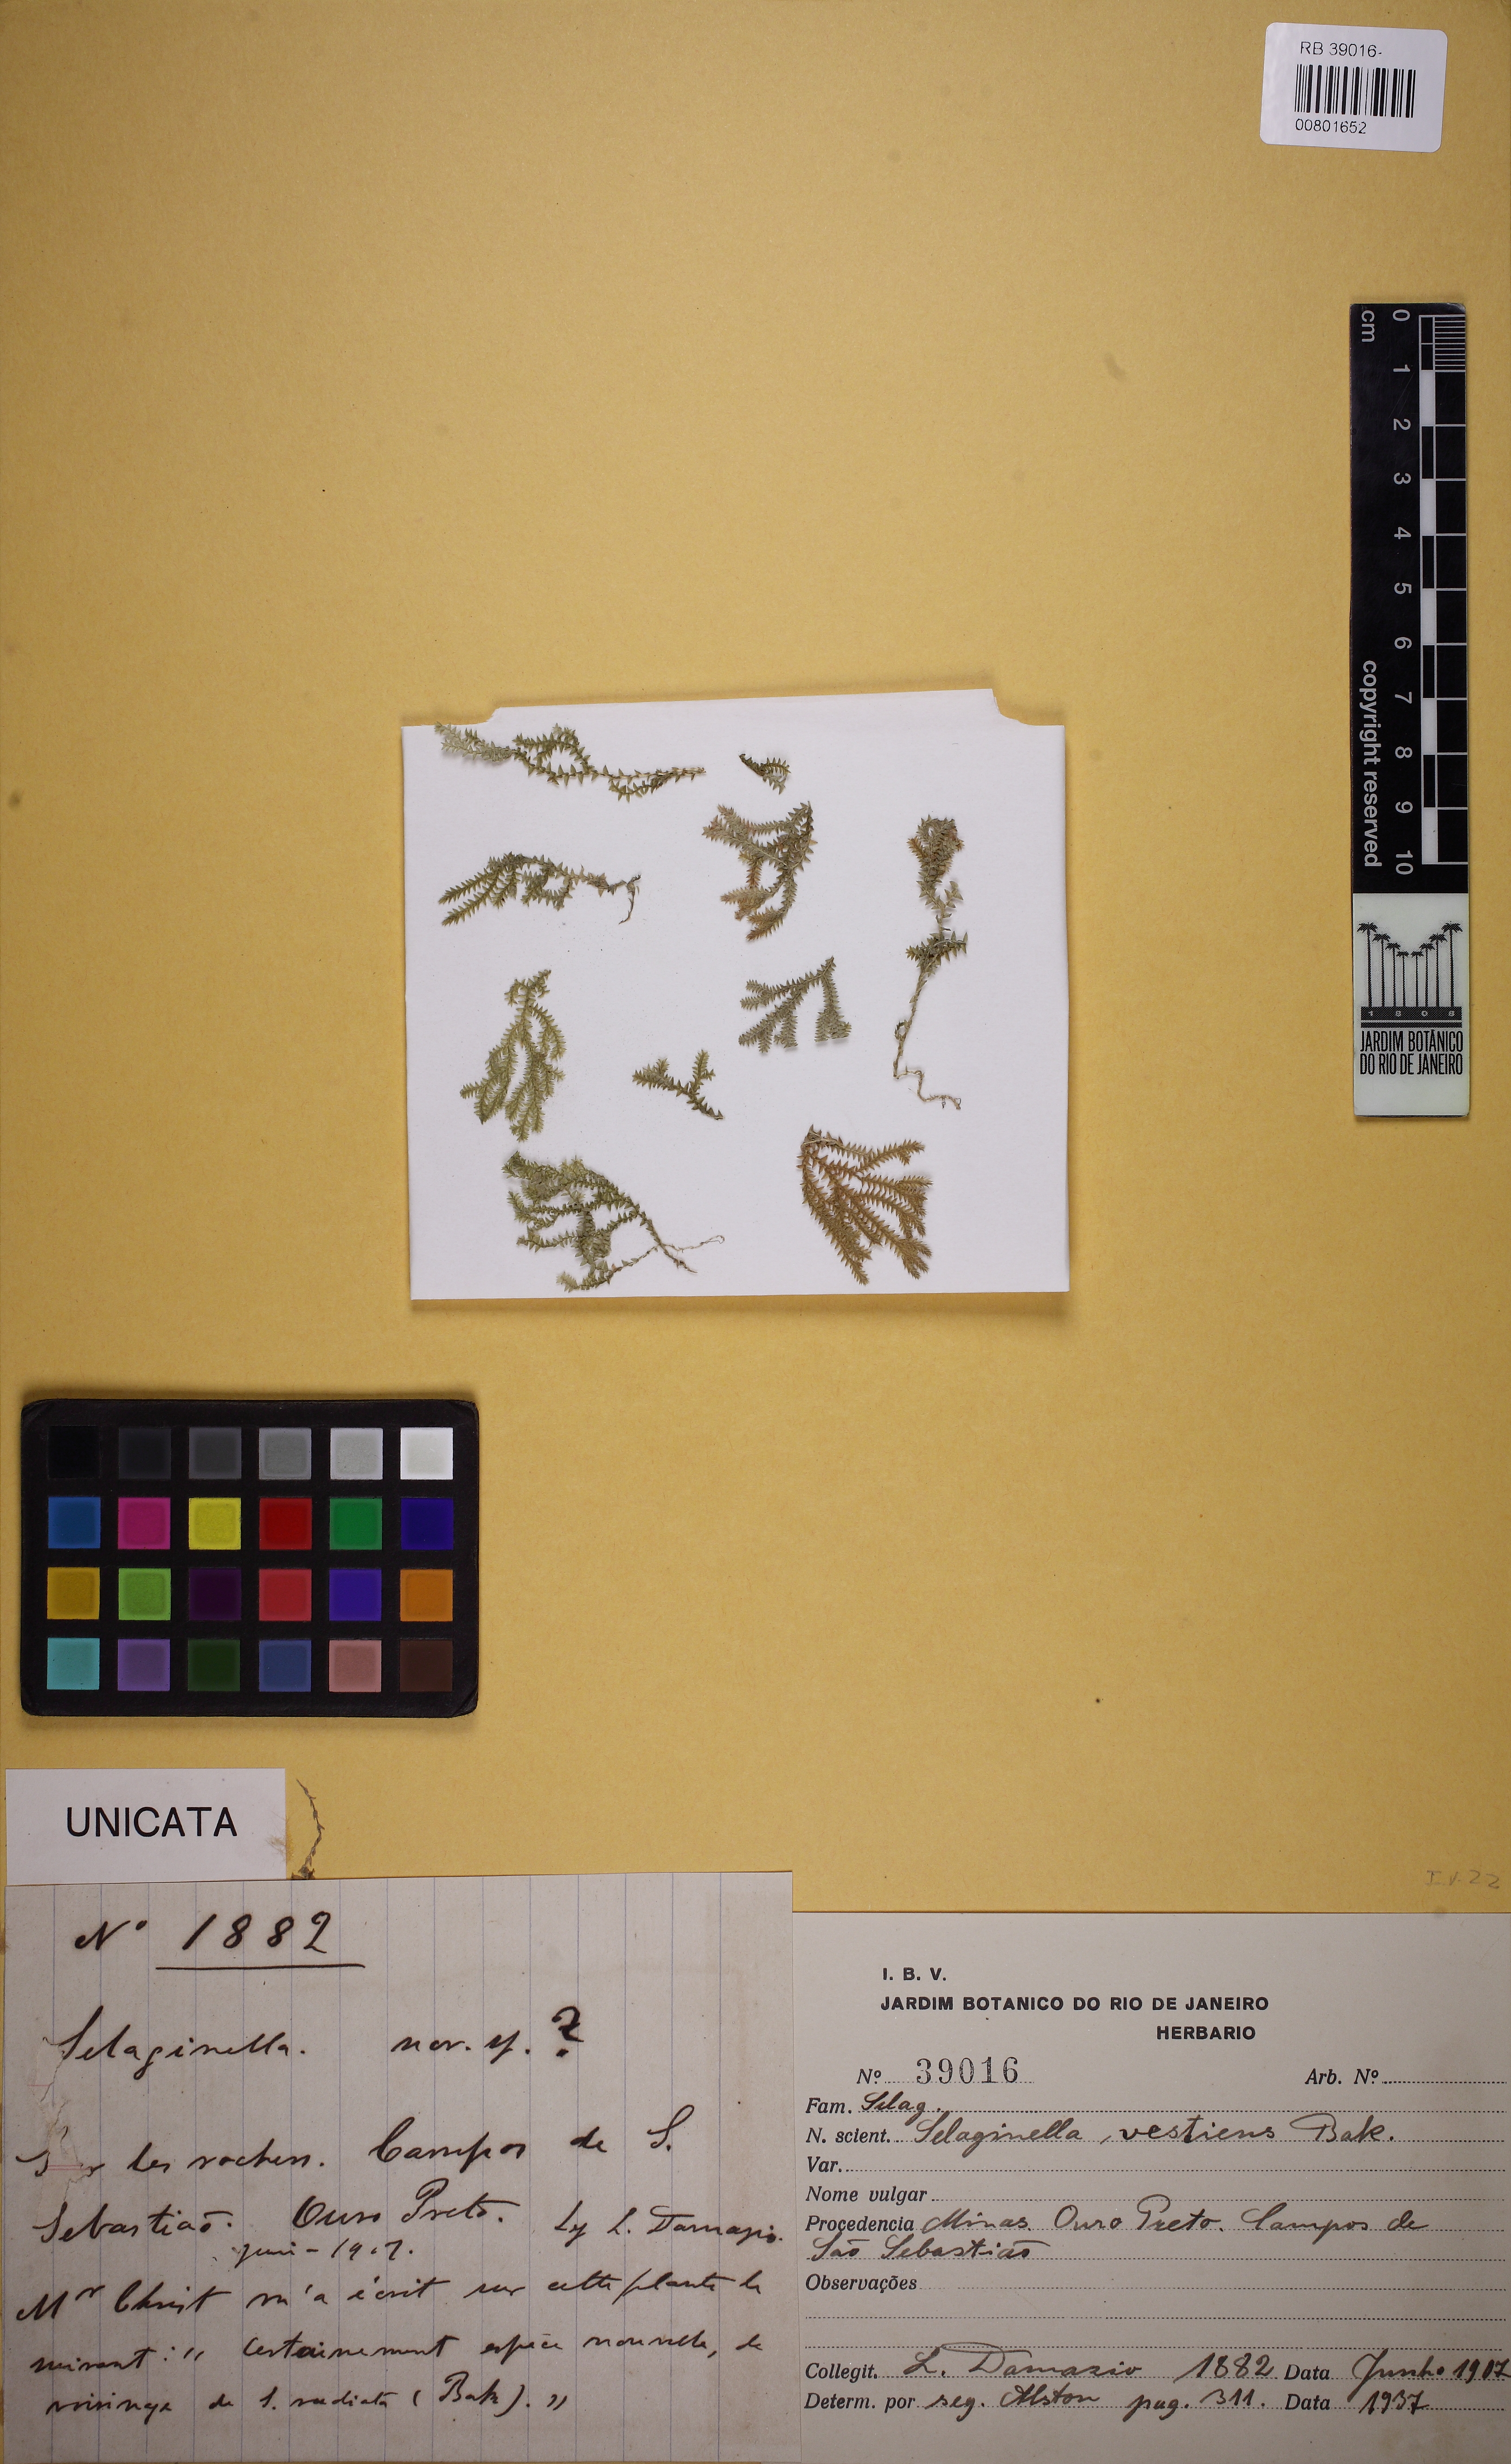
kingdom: Plantae
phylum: Tracheophyta
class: Lycopodiopsida
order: Selaginellales
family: Selaginellaceae
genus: Selaginella
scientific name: Selaginella vestiens
